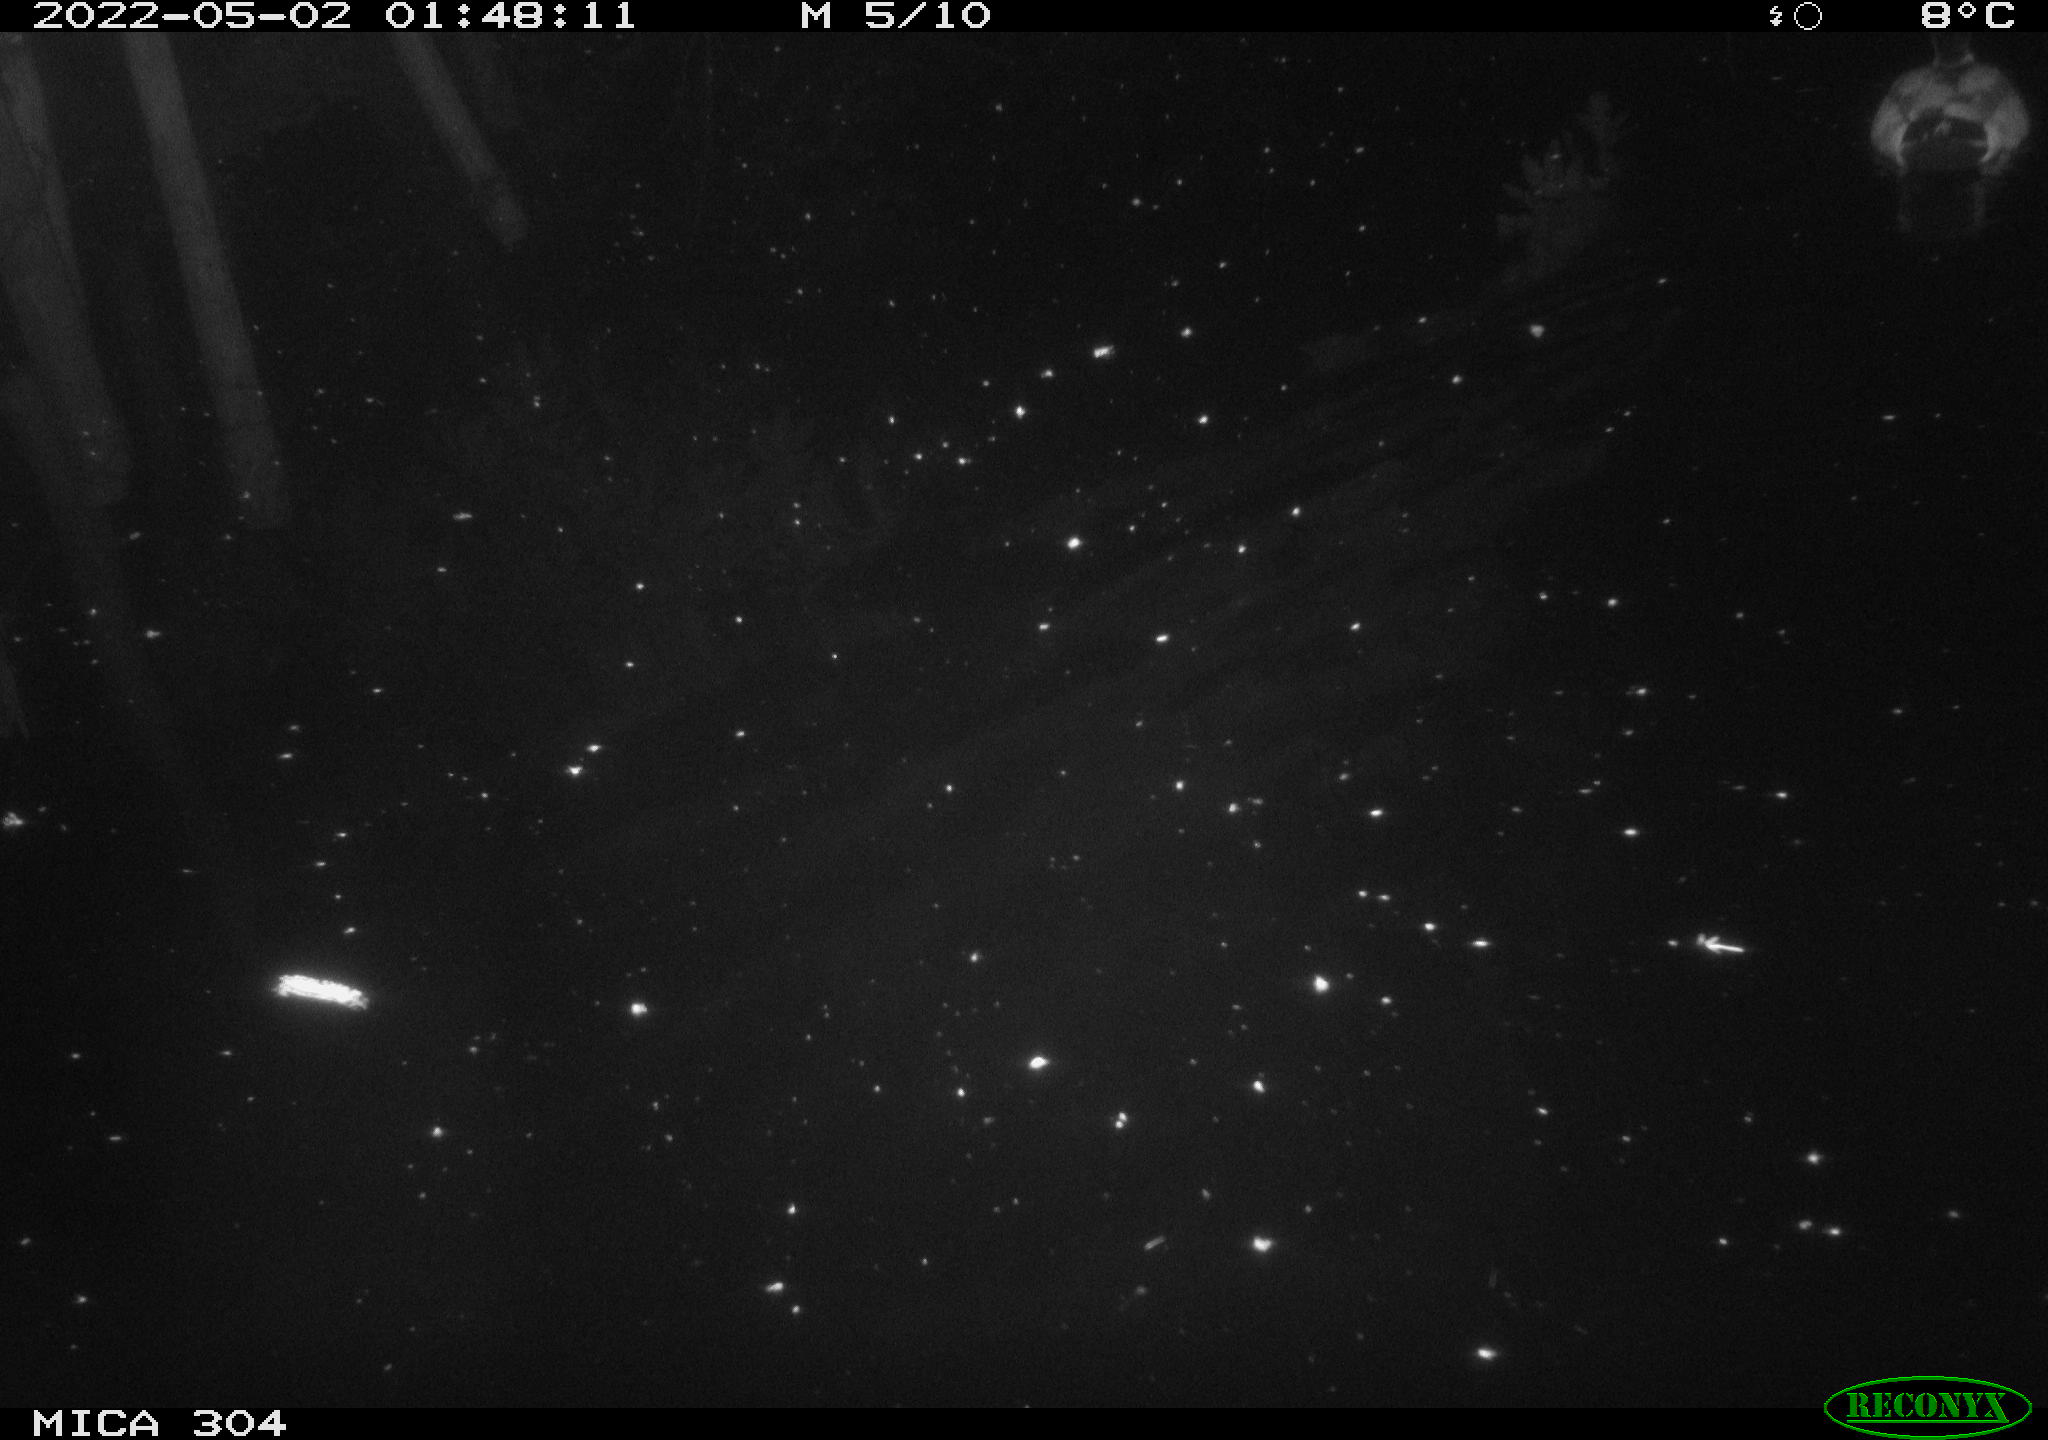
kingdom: Animalia
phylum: Chordata
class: Aves
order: Anseriformes
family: Anatidae
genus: Anas
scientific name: Anas platyrhynchos
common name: Mallard
